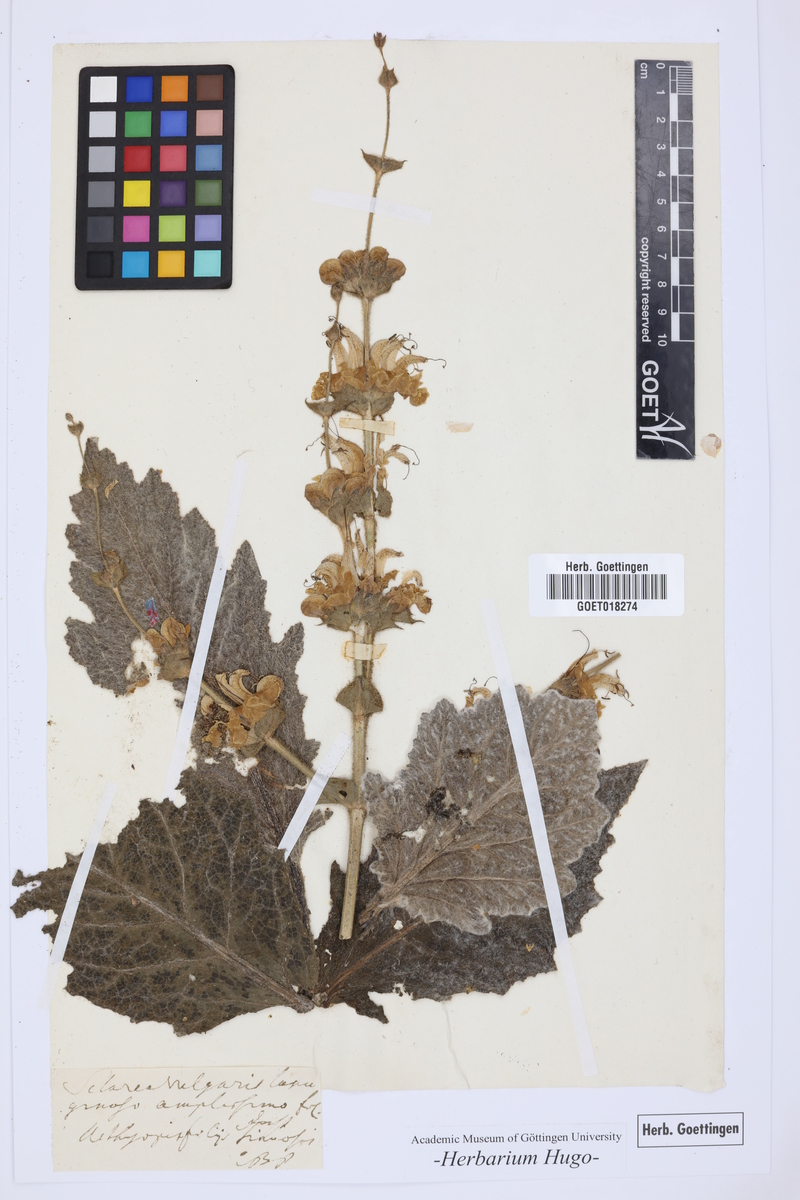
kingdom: Plantae
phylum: Tracheophyta
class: Magnoliopsida
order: Lamiales
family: Lamiaceae
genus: Salvia
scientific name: Salvia aethiopis
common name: Mediterranean sage
